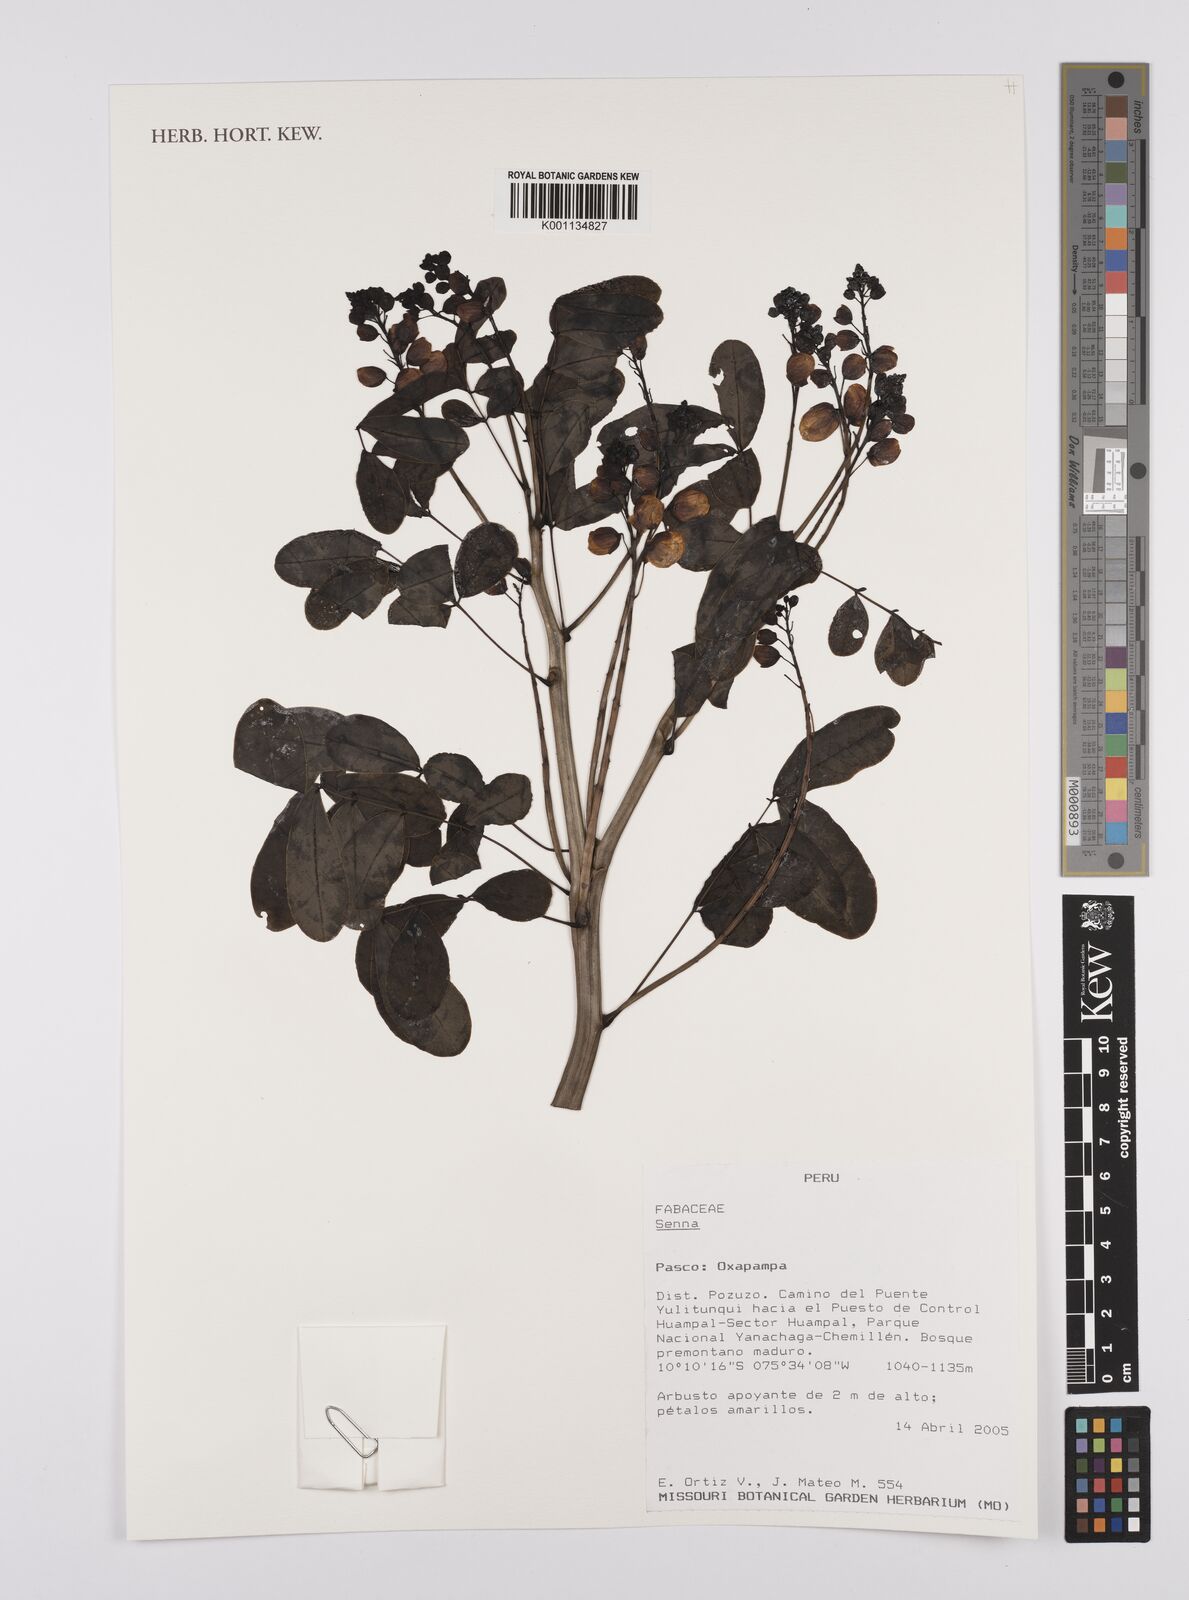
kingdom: Plantae
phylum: Tracheophyta
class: Magnoliopsida
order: Fabales
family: Fabaceae
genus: Senna
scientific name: Senna
